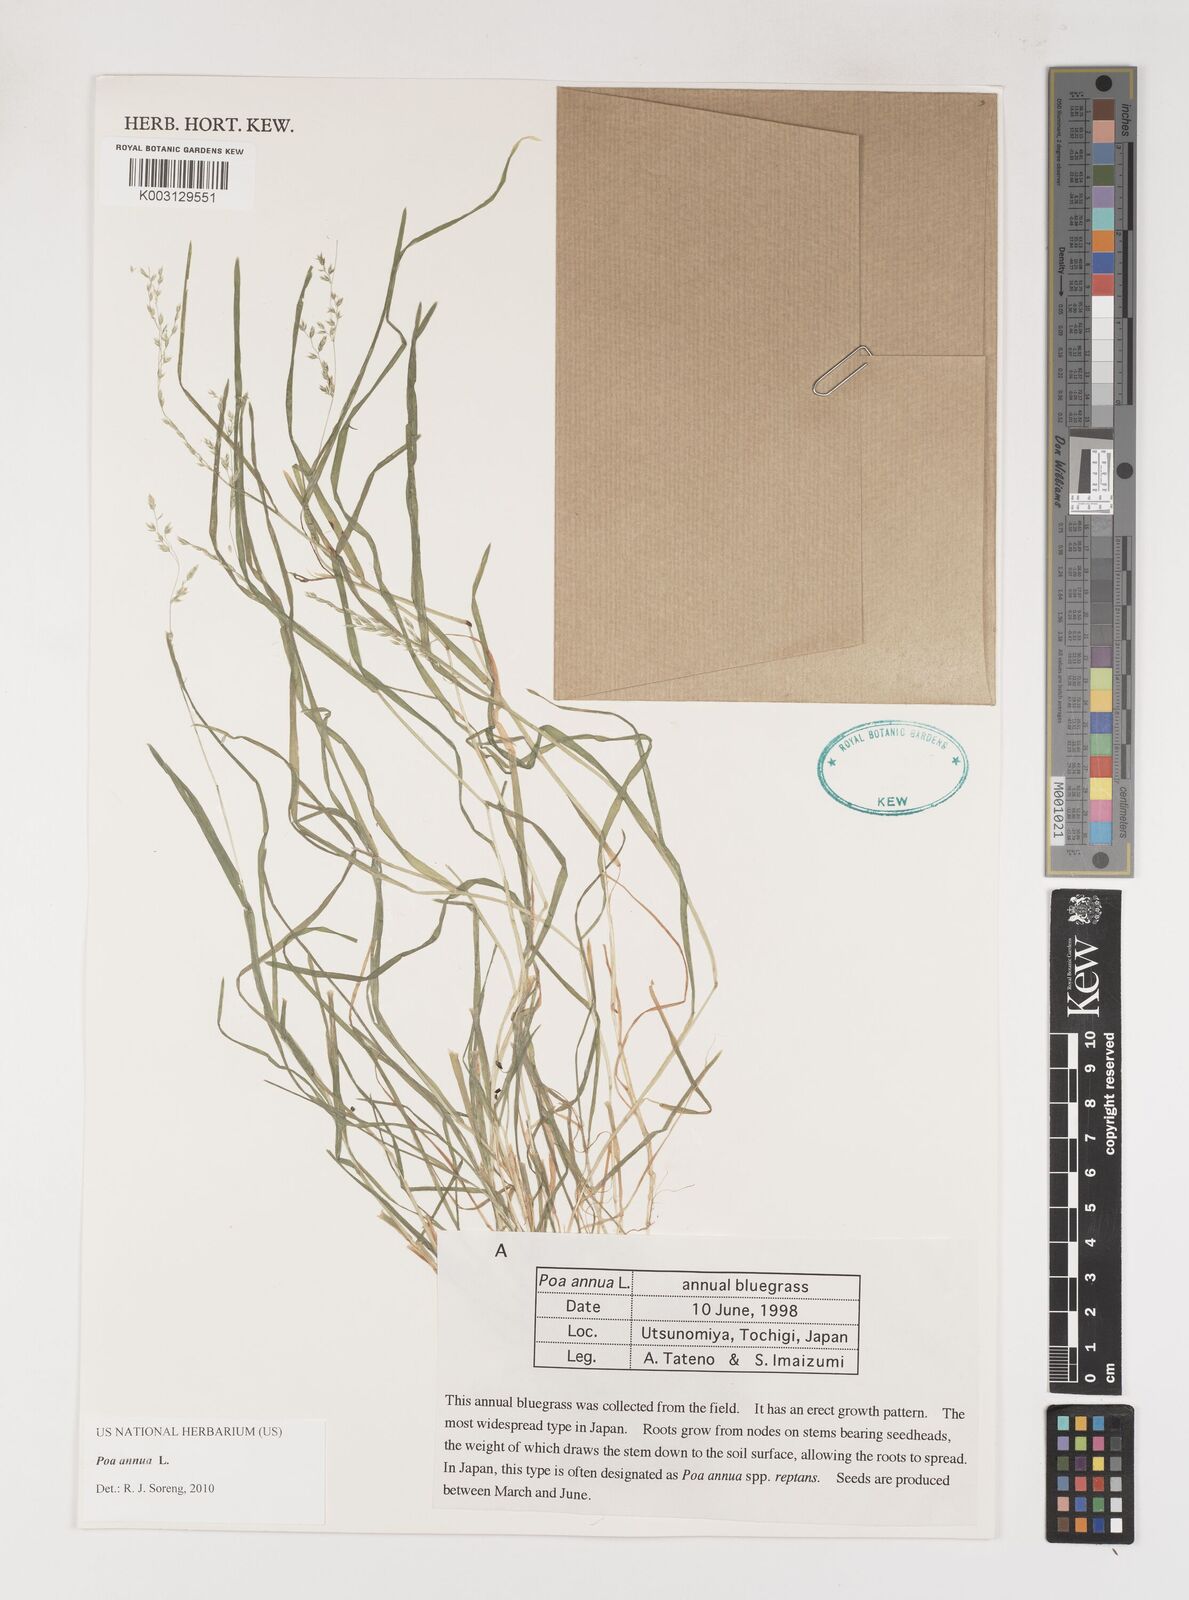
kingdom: Plantae
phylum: Tracheophyta
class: Liliopsida
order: Poales
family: Poaceae
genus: Poa
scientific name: Poa annua
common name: Annual bluegrass
